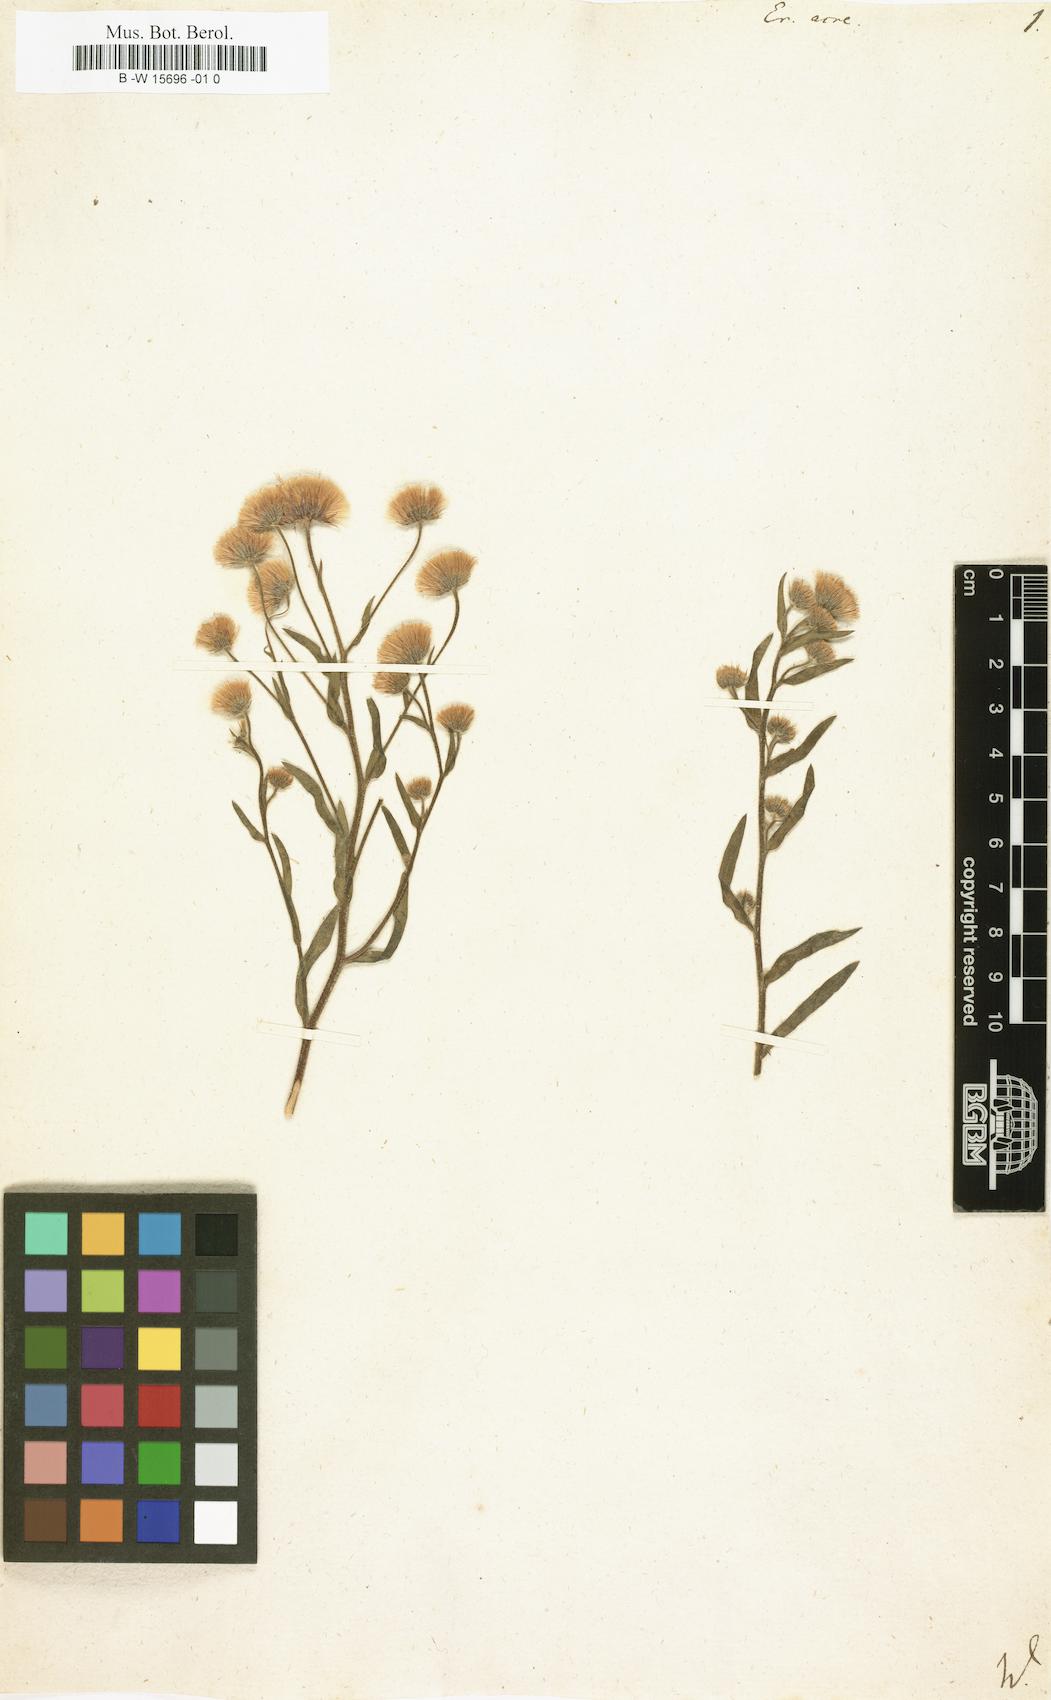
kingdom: Plantae
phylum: Tracheophyta
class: Magnoliopsida
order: Asterales
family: Asteraceae
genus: Erigeron
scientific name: Erigeron acris
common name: Blue fleabane
